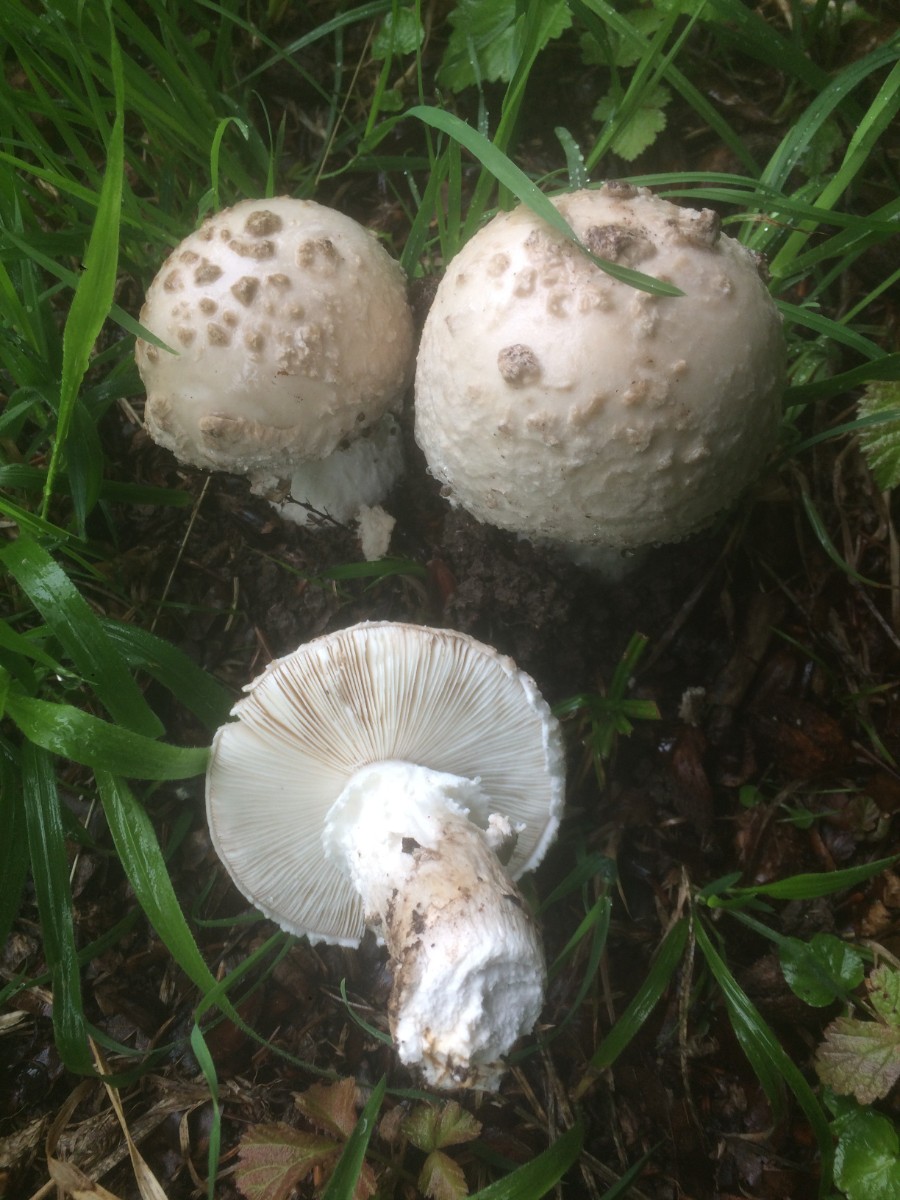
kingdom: Fungi
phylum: Basidiomycota
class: Agaricomycetes
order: Agaricales
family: Amanitaceae
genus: Amanita
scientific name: Amanita
